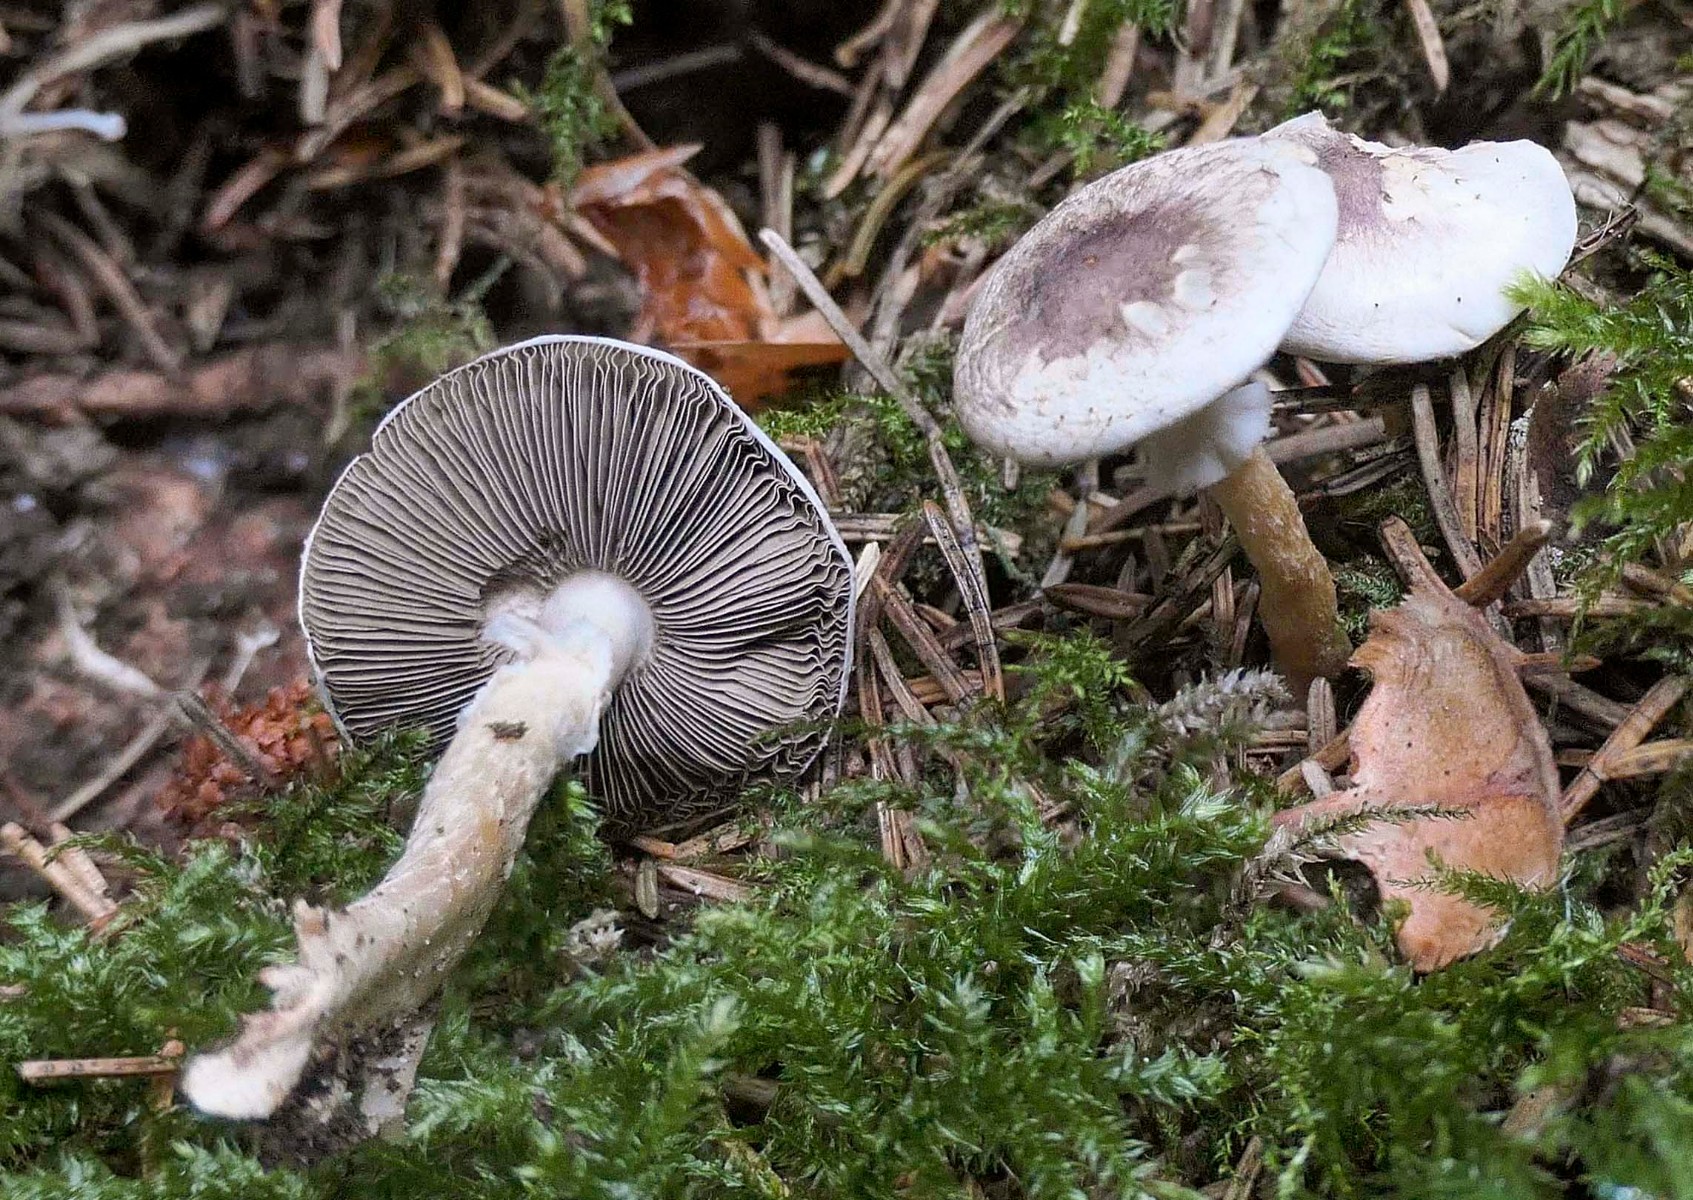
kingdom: Fungi
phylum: Basidiomycota
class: Agaricomycetes
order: Agaricales
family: Agaricaceae
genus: Agaricus
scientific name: Agaricus dulcidulus
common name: blegrød champignon
